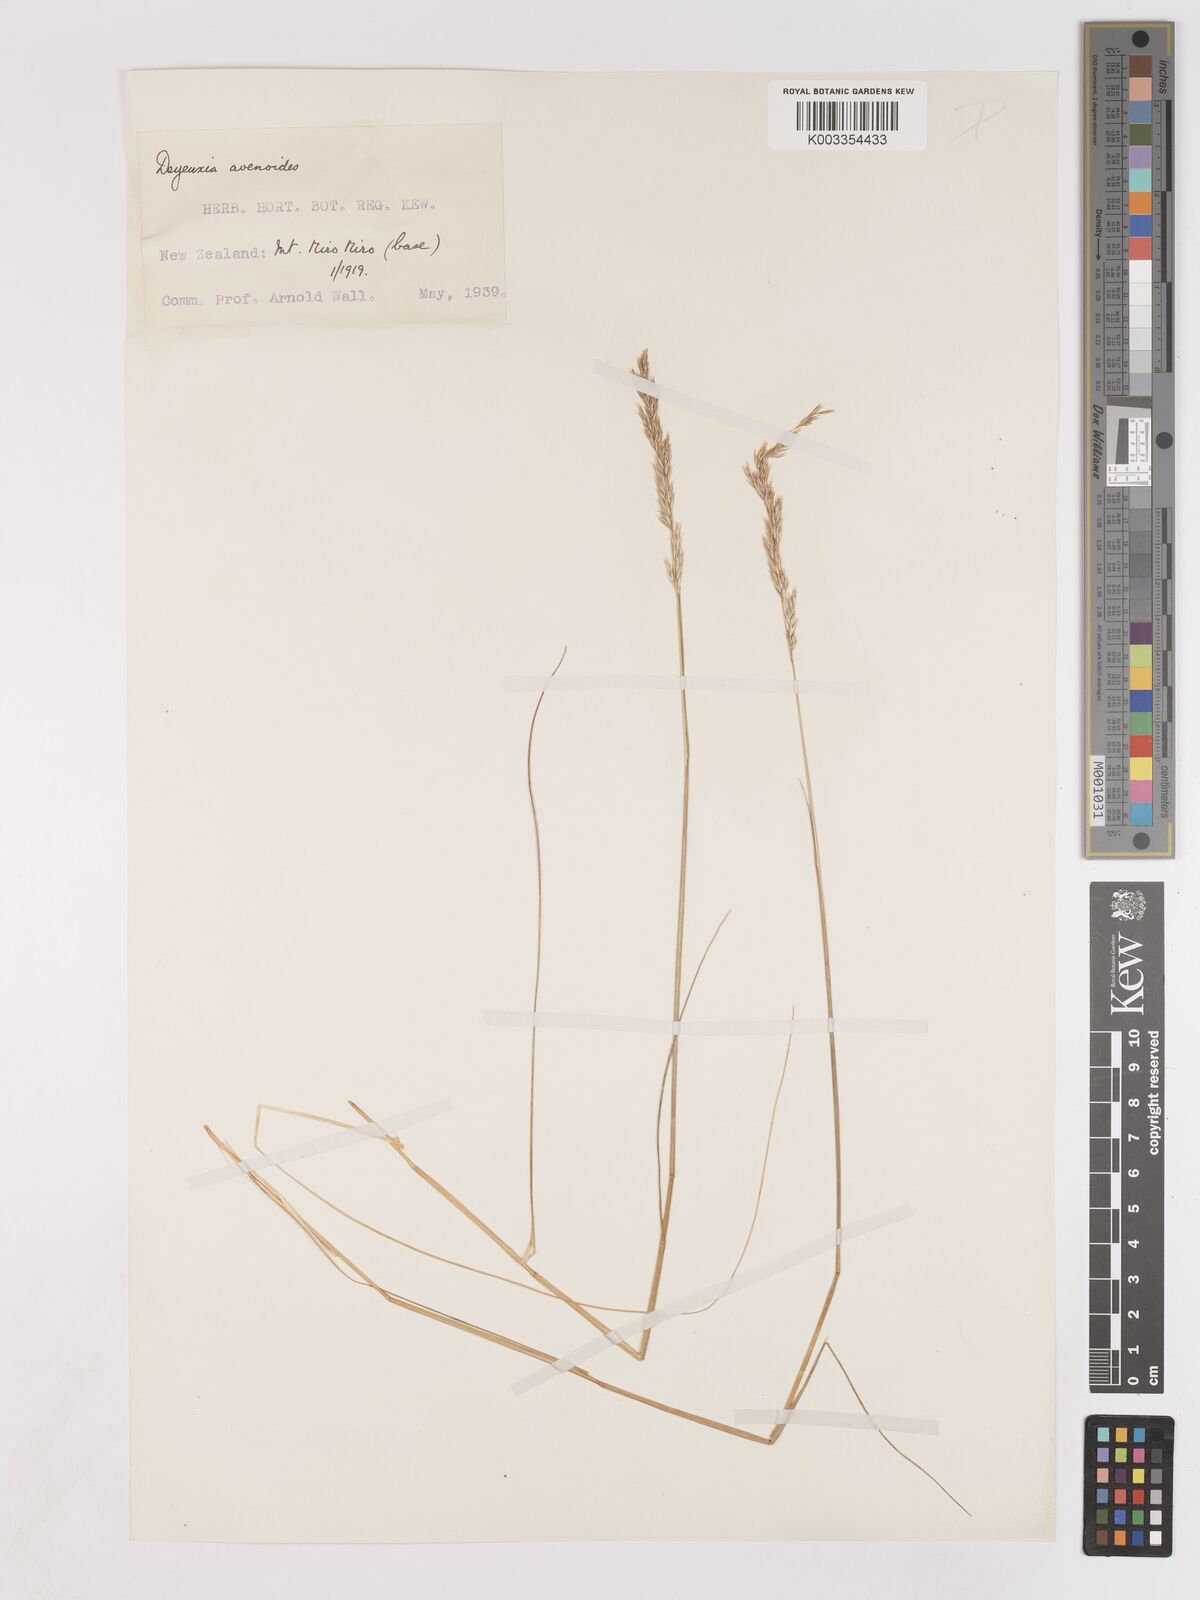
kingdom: Plantae
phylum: Tracheophyta
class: Liliopsida
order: Poales
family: Poaceae
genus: Calamagrostis
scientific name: Calamagrostis avenoides
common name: Mountain oat grass
